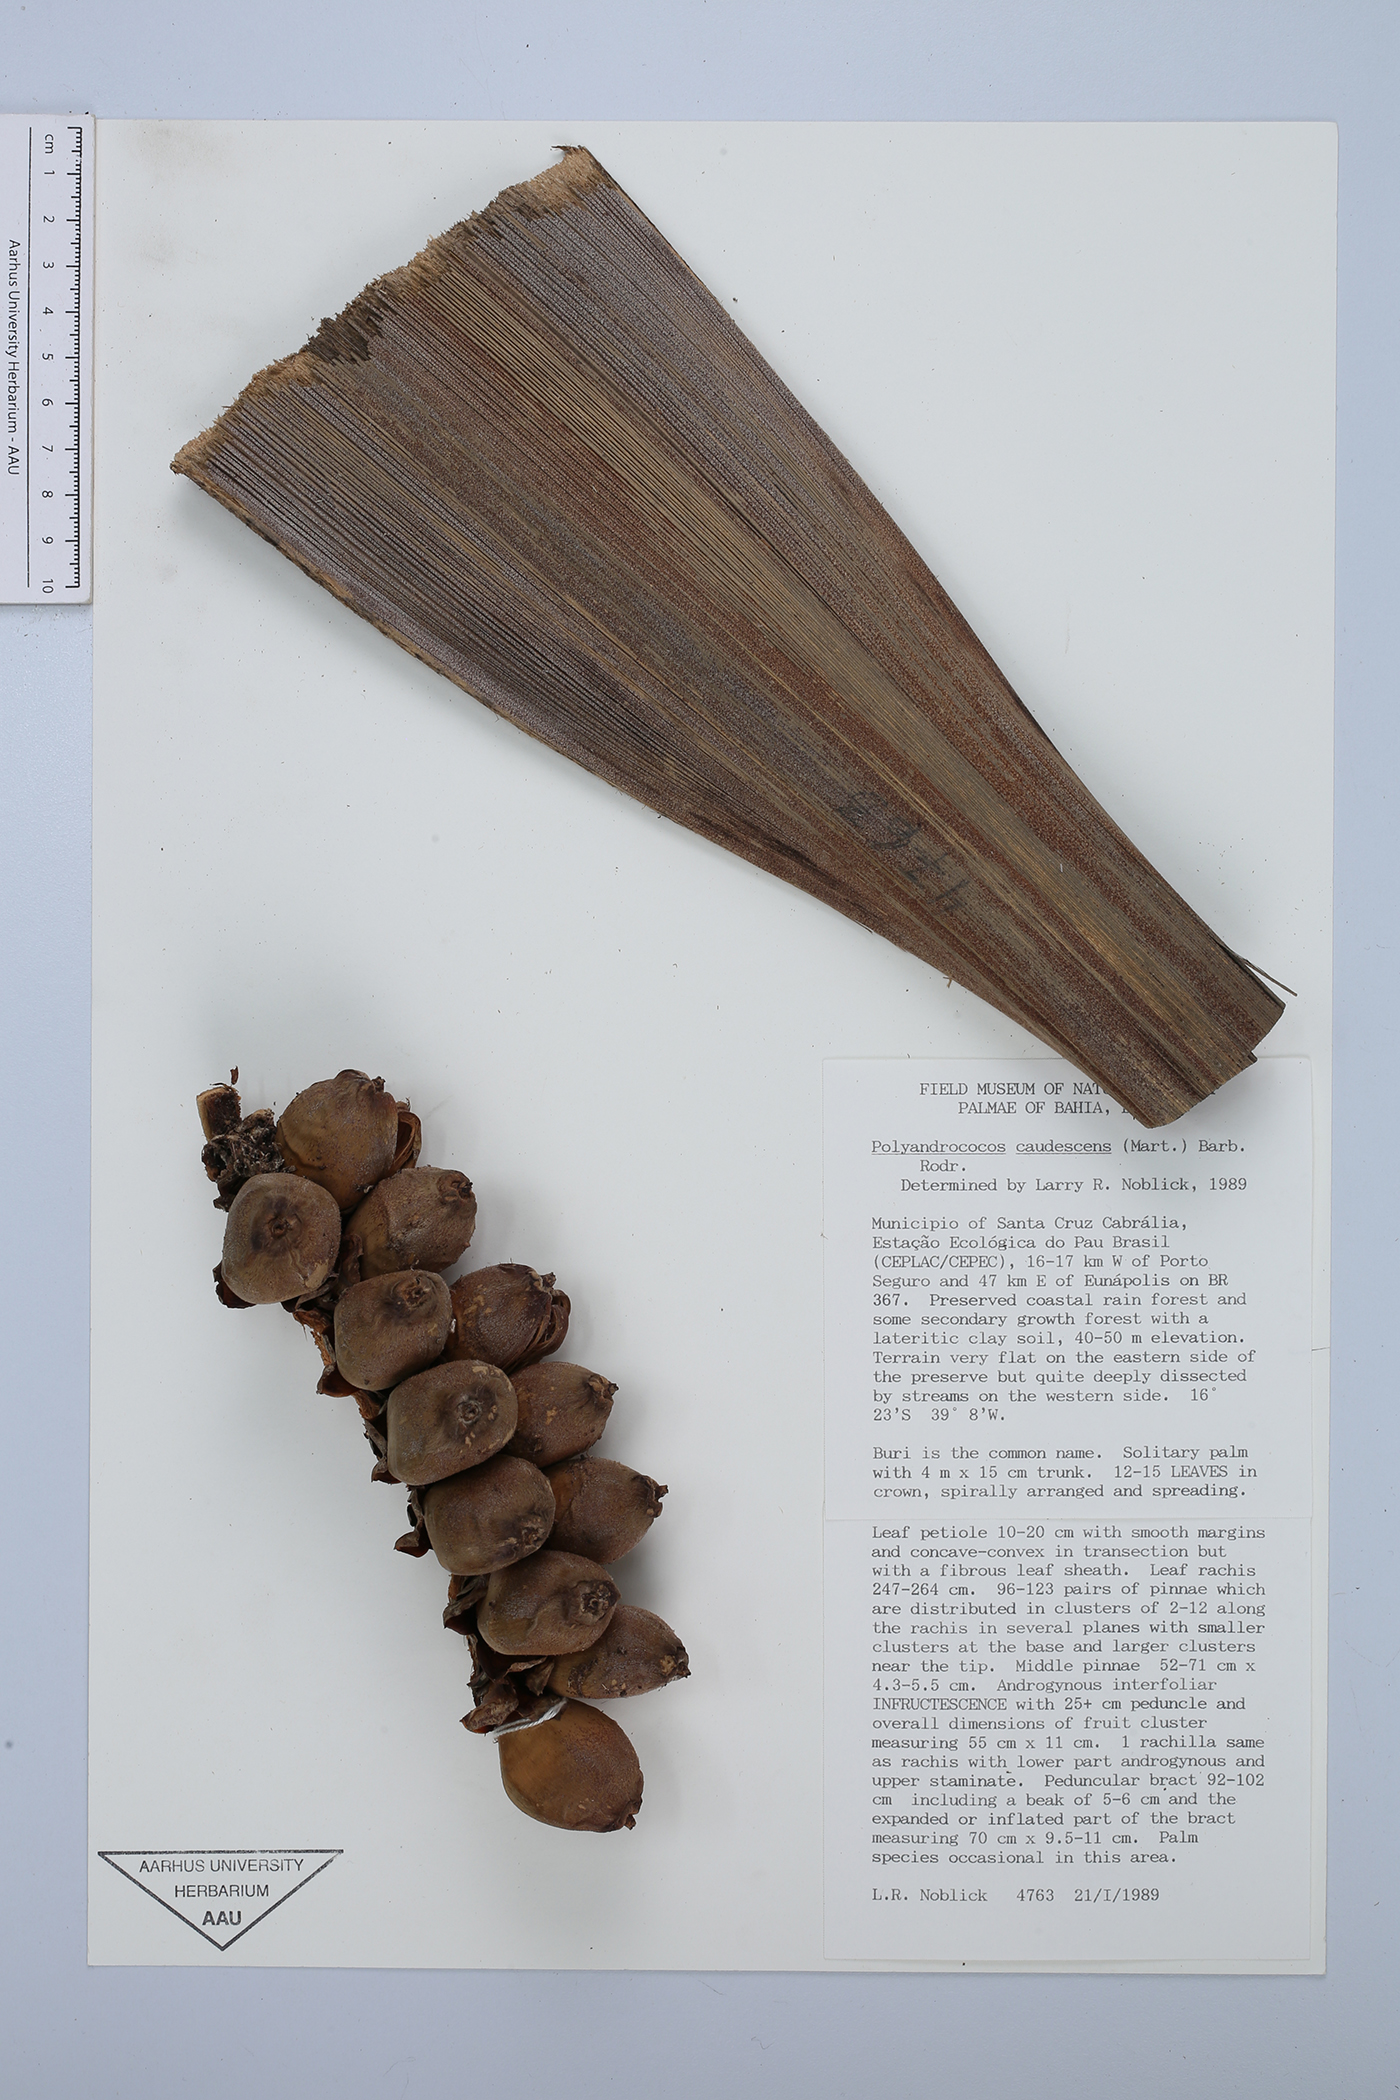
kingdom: Plantae
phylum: Tracheophyta
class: Liliopsida
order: Arecales
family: Arecaceae
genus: Allagoptera
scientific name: Allagoptera caudescens
